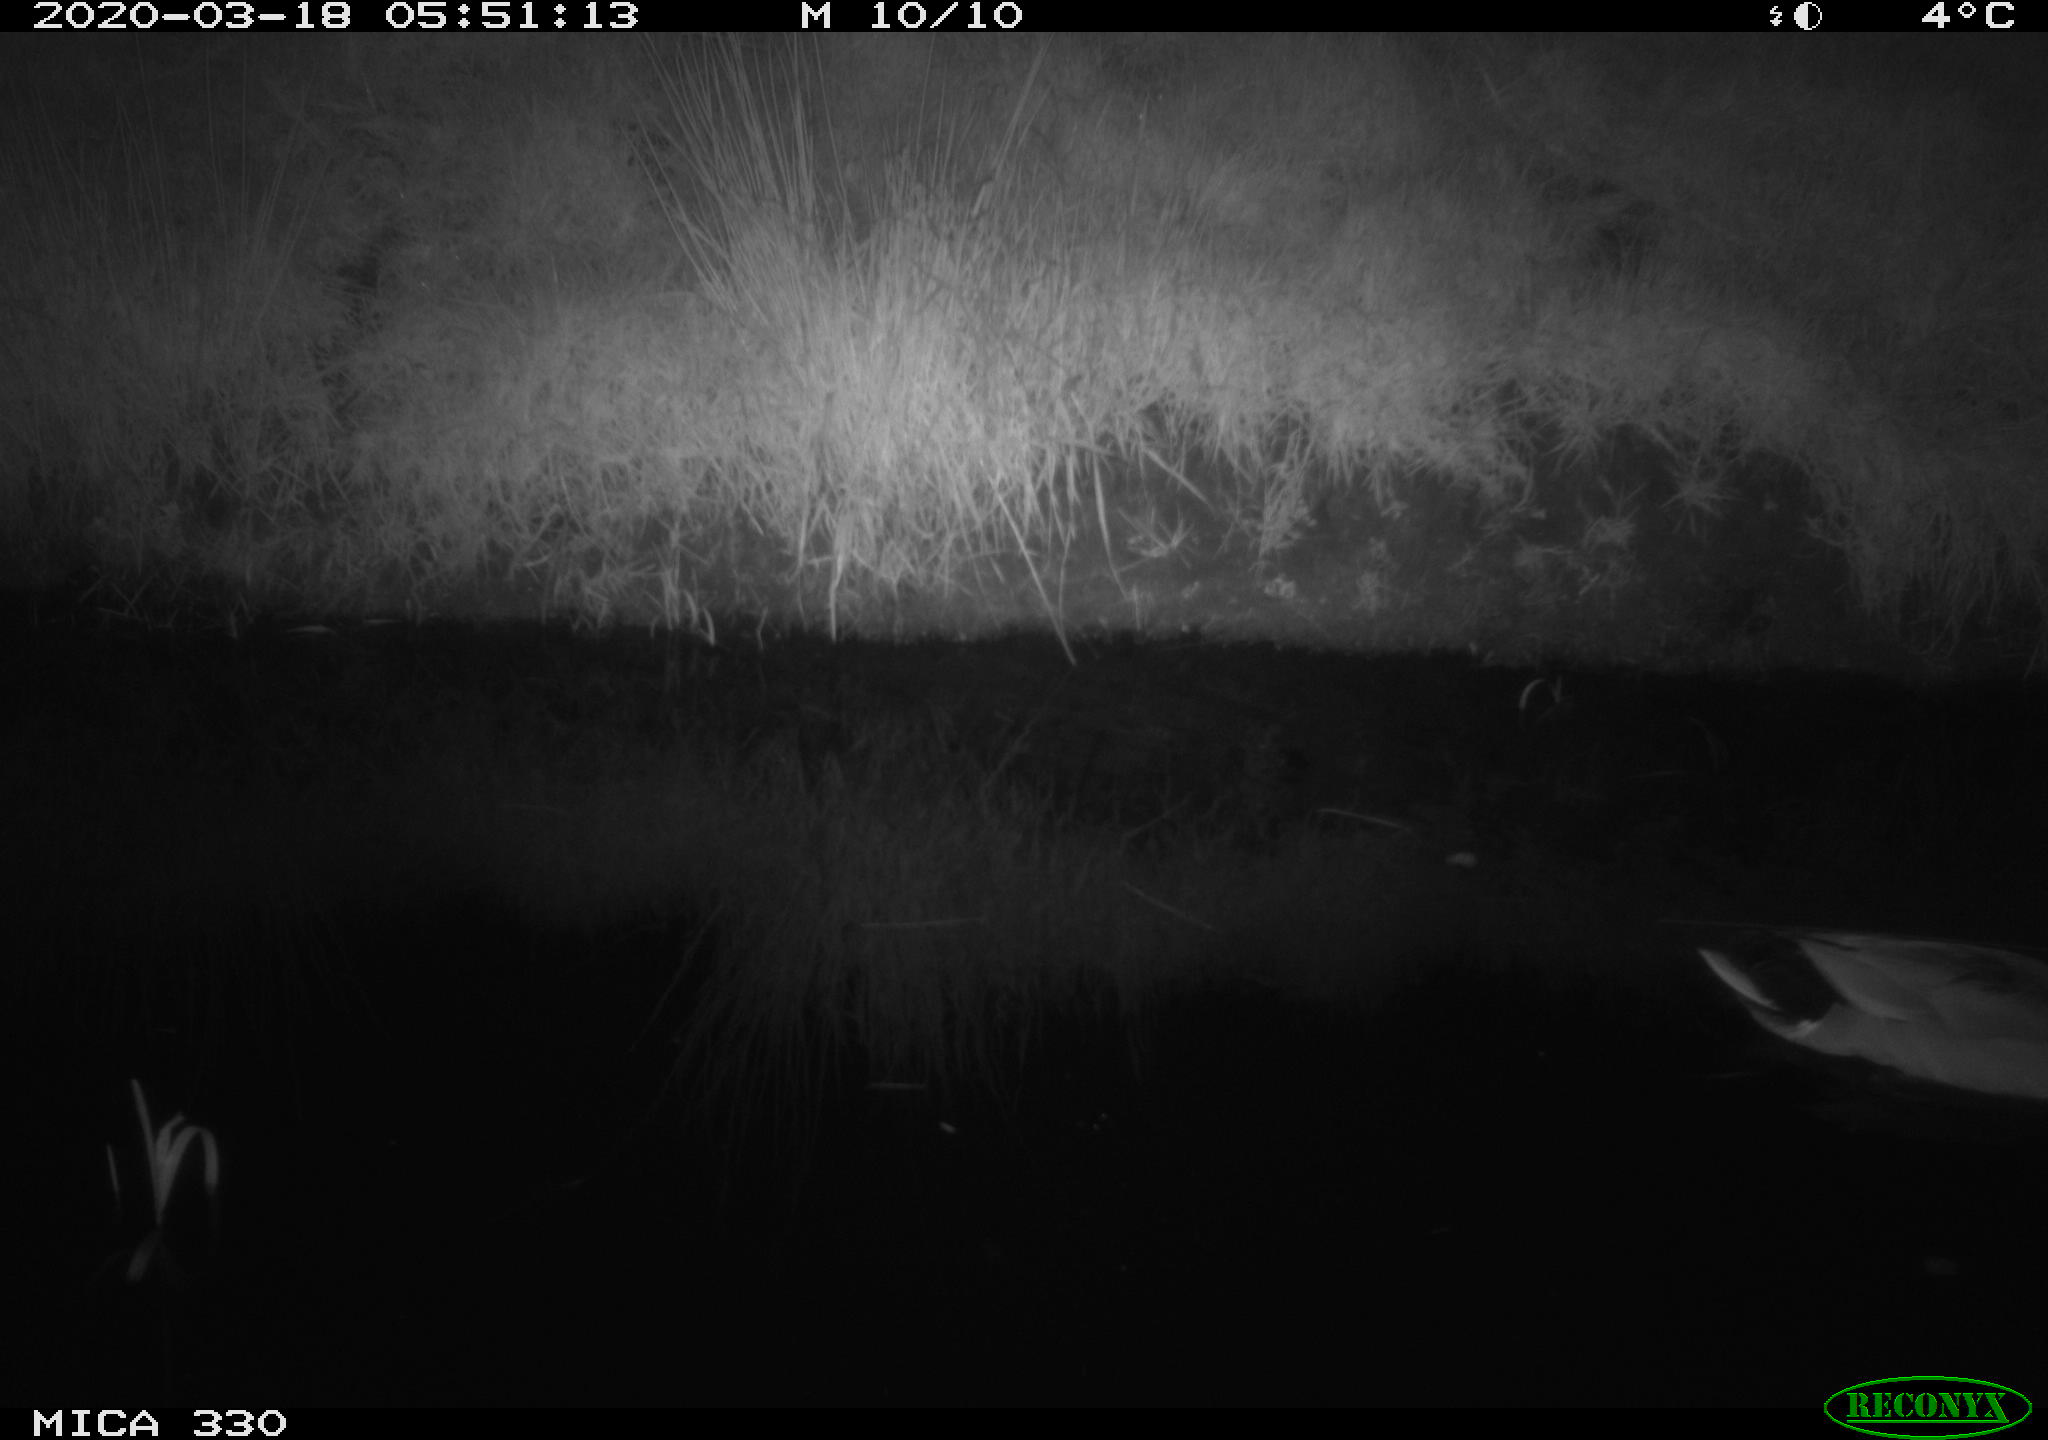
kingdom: Animalia
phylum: Chordata
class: Aves
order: Anseriformes
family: Anatidae
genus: Anas
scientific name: Anas platyrhynchos
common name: Mallard
